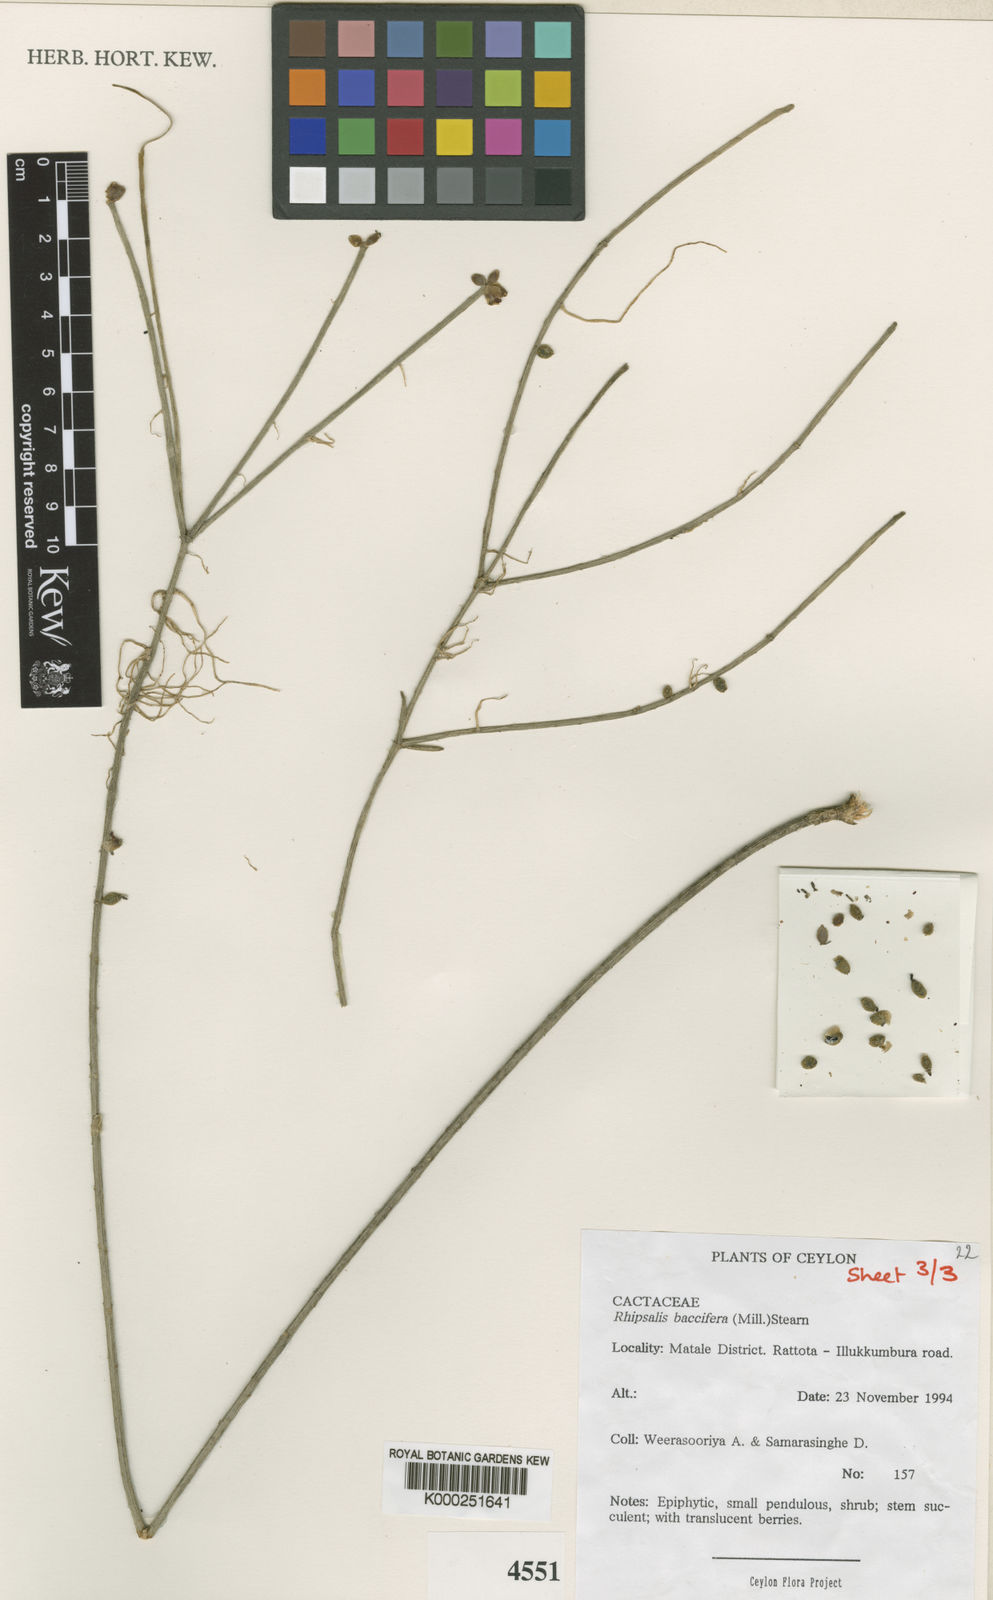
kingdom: Plantae
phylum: Tracheophyta
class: Magnoliopsida
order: Caryophyllales
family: Cactaceae
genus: Rhipsalis
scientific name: Rhipsalis baccifera
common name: Mistletoe cactus
